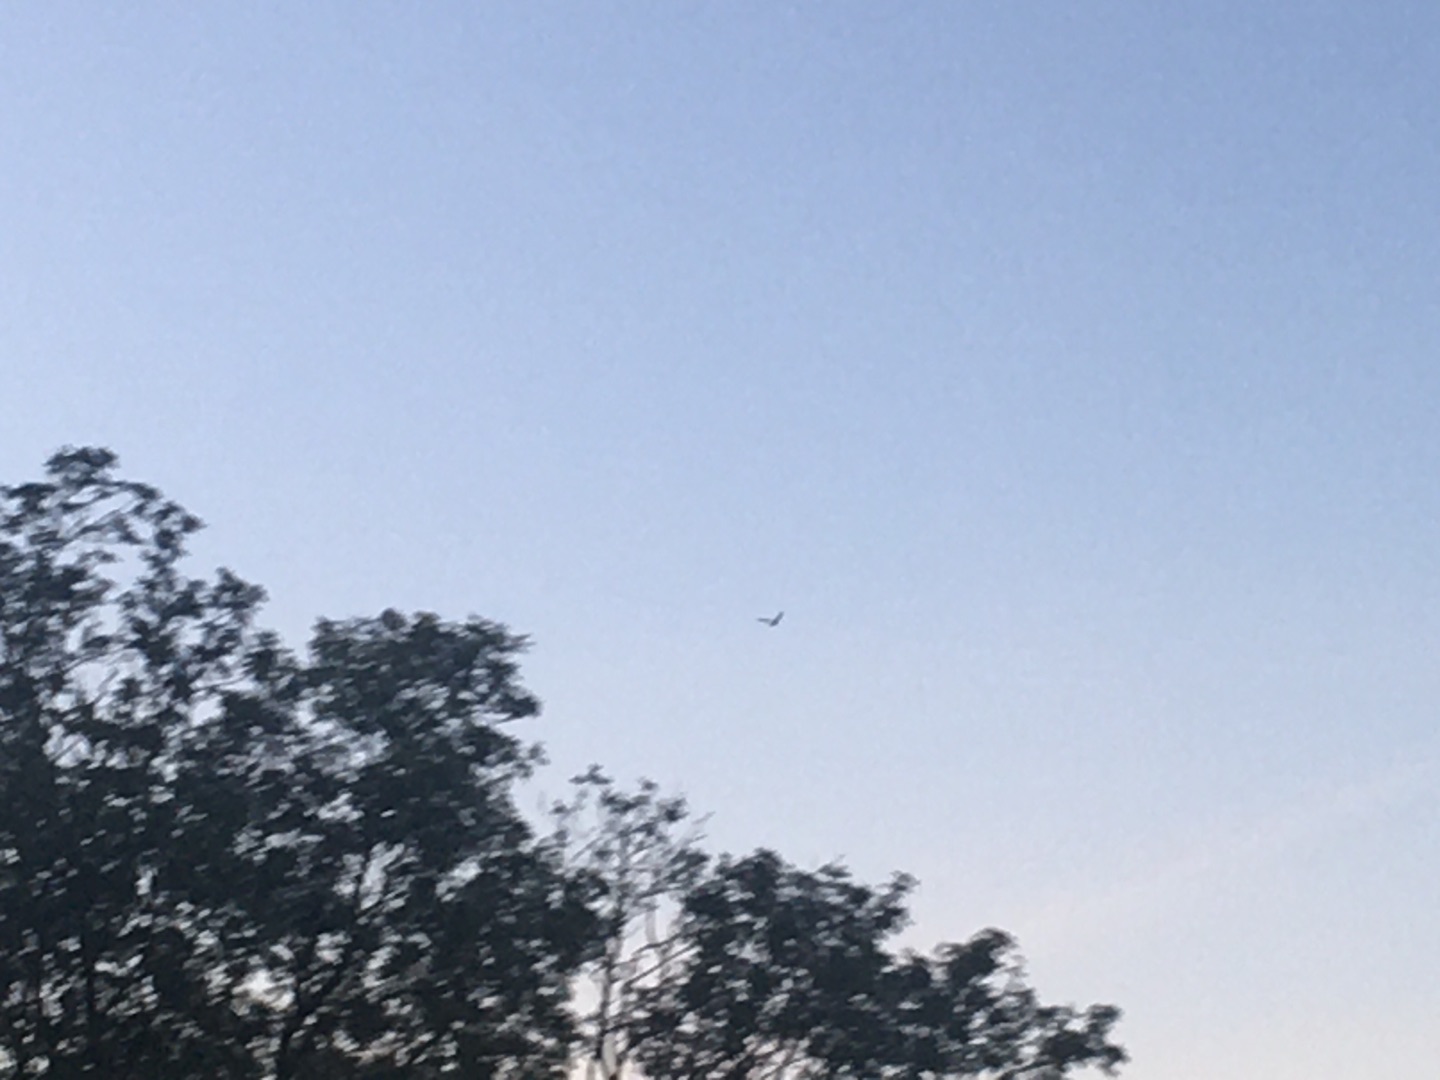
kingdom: Animalia
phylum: Chordata
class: Aves
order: Falconiformes
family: Falconidae
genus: Falco
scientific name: Falco tinnunculus
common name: Tårnfalk
